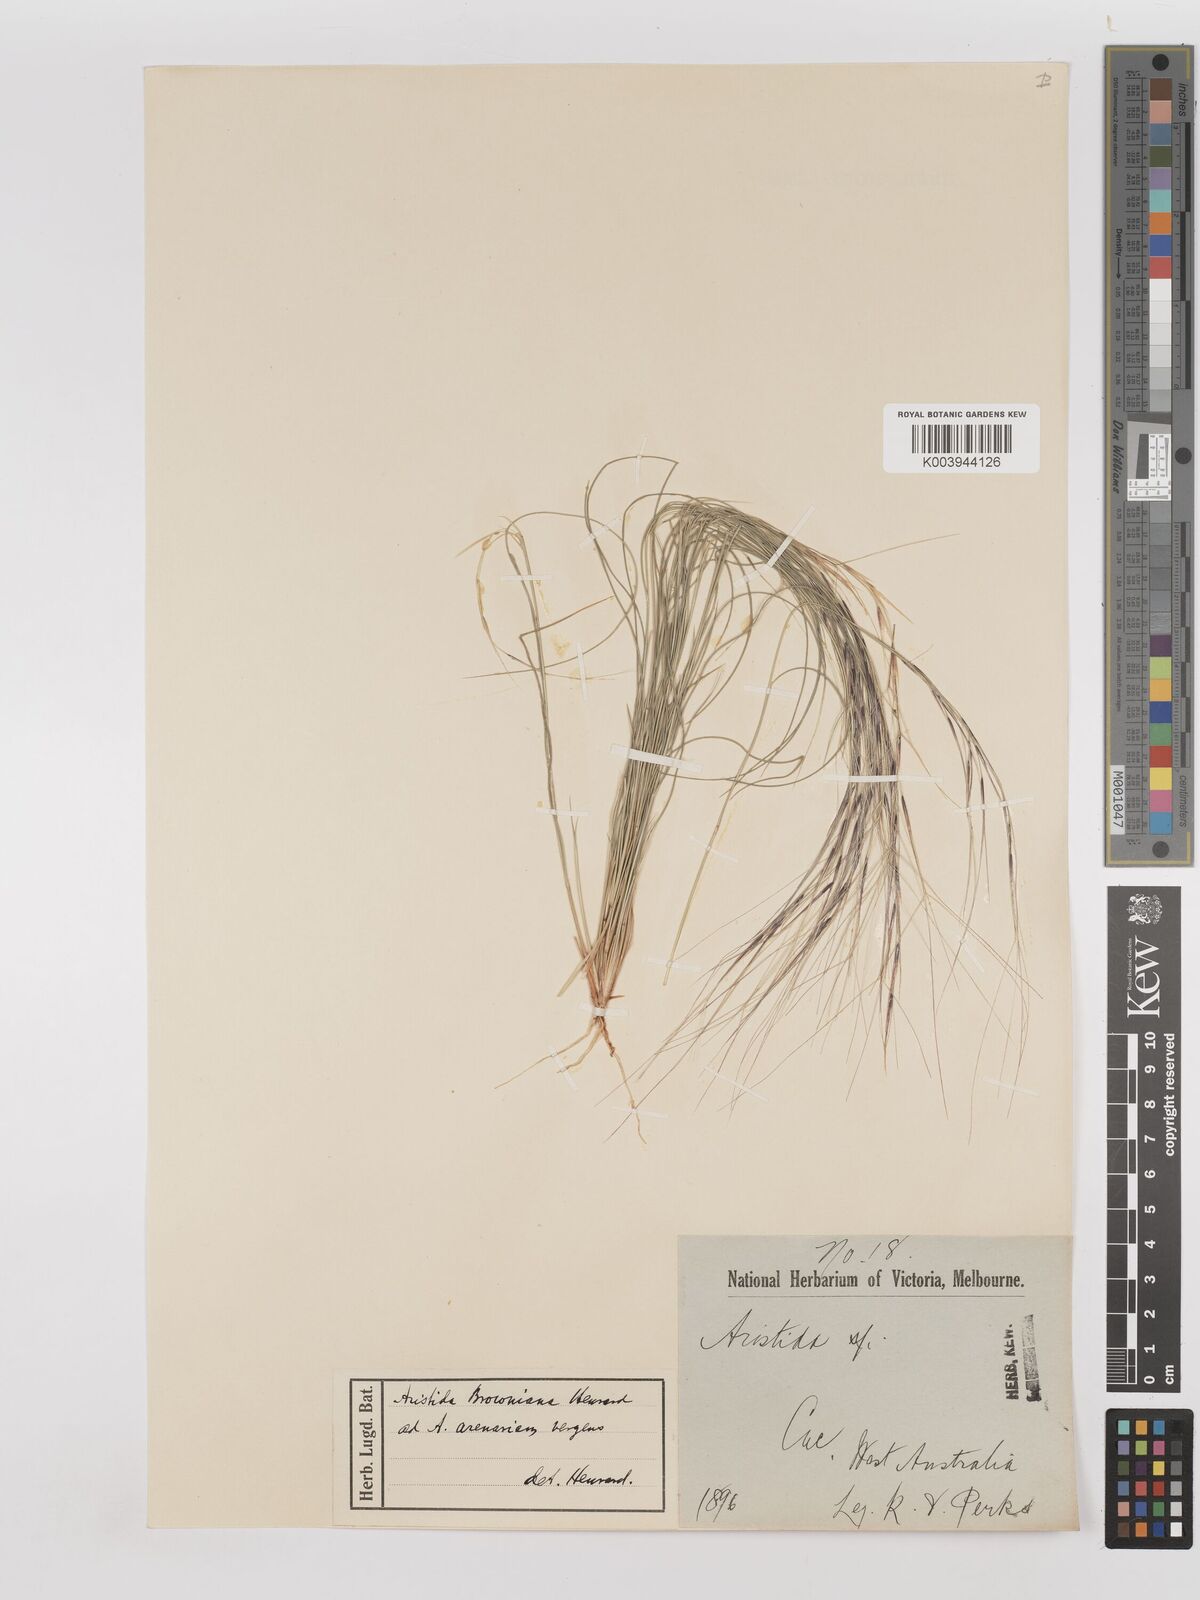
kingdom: Plantae
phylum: Tracheophyta
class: Liliopsida
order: Poales
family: Poaceae
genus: Aristida
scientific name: Aristida holathera
